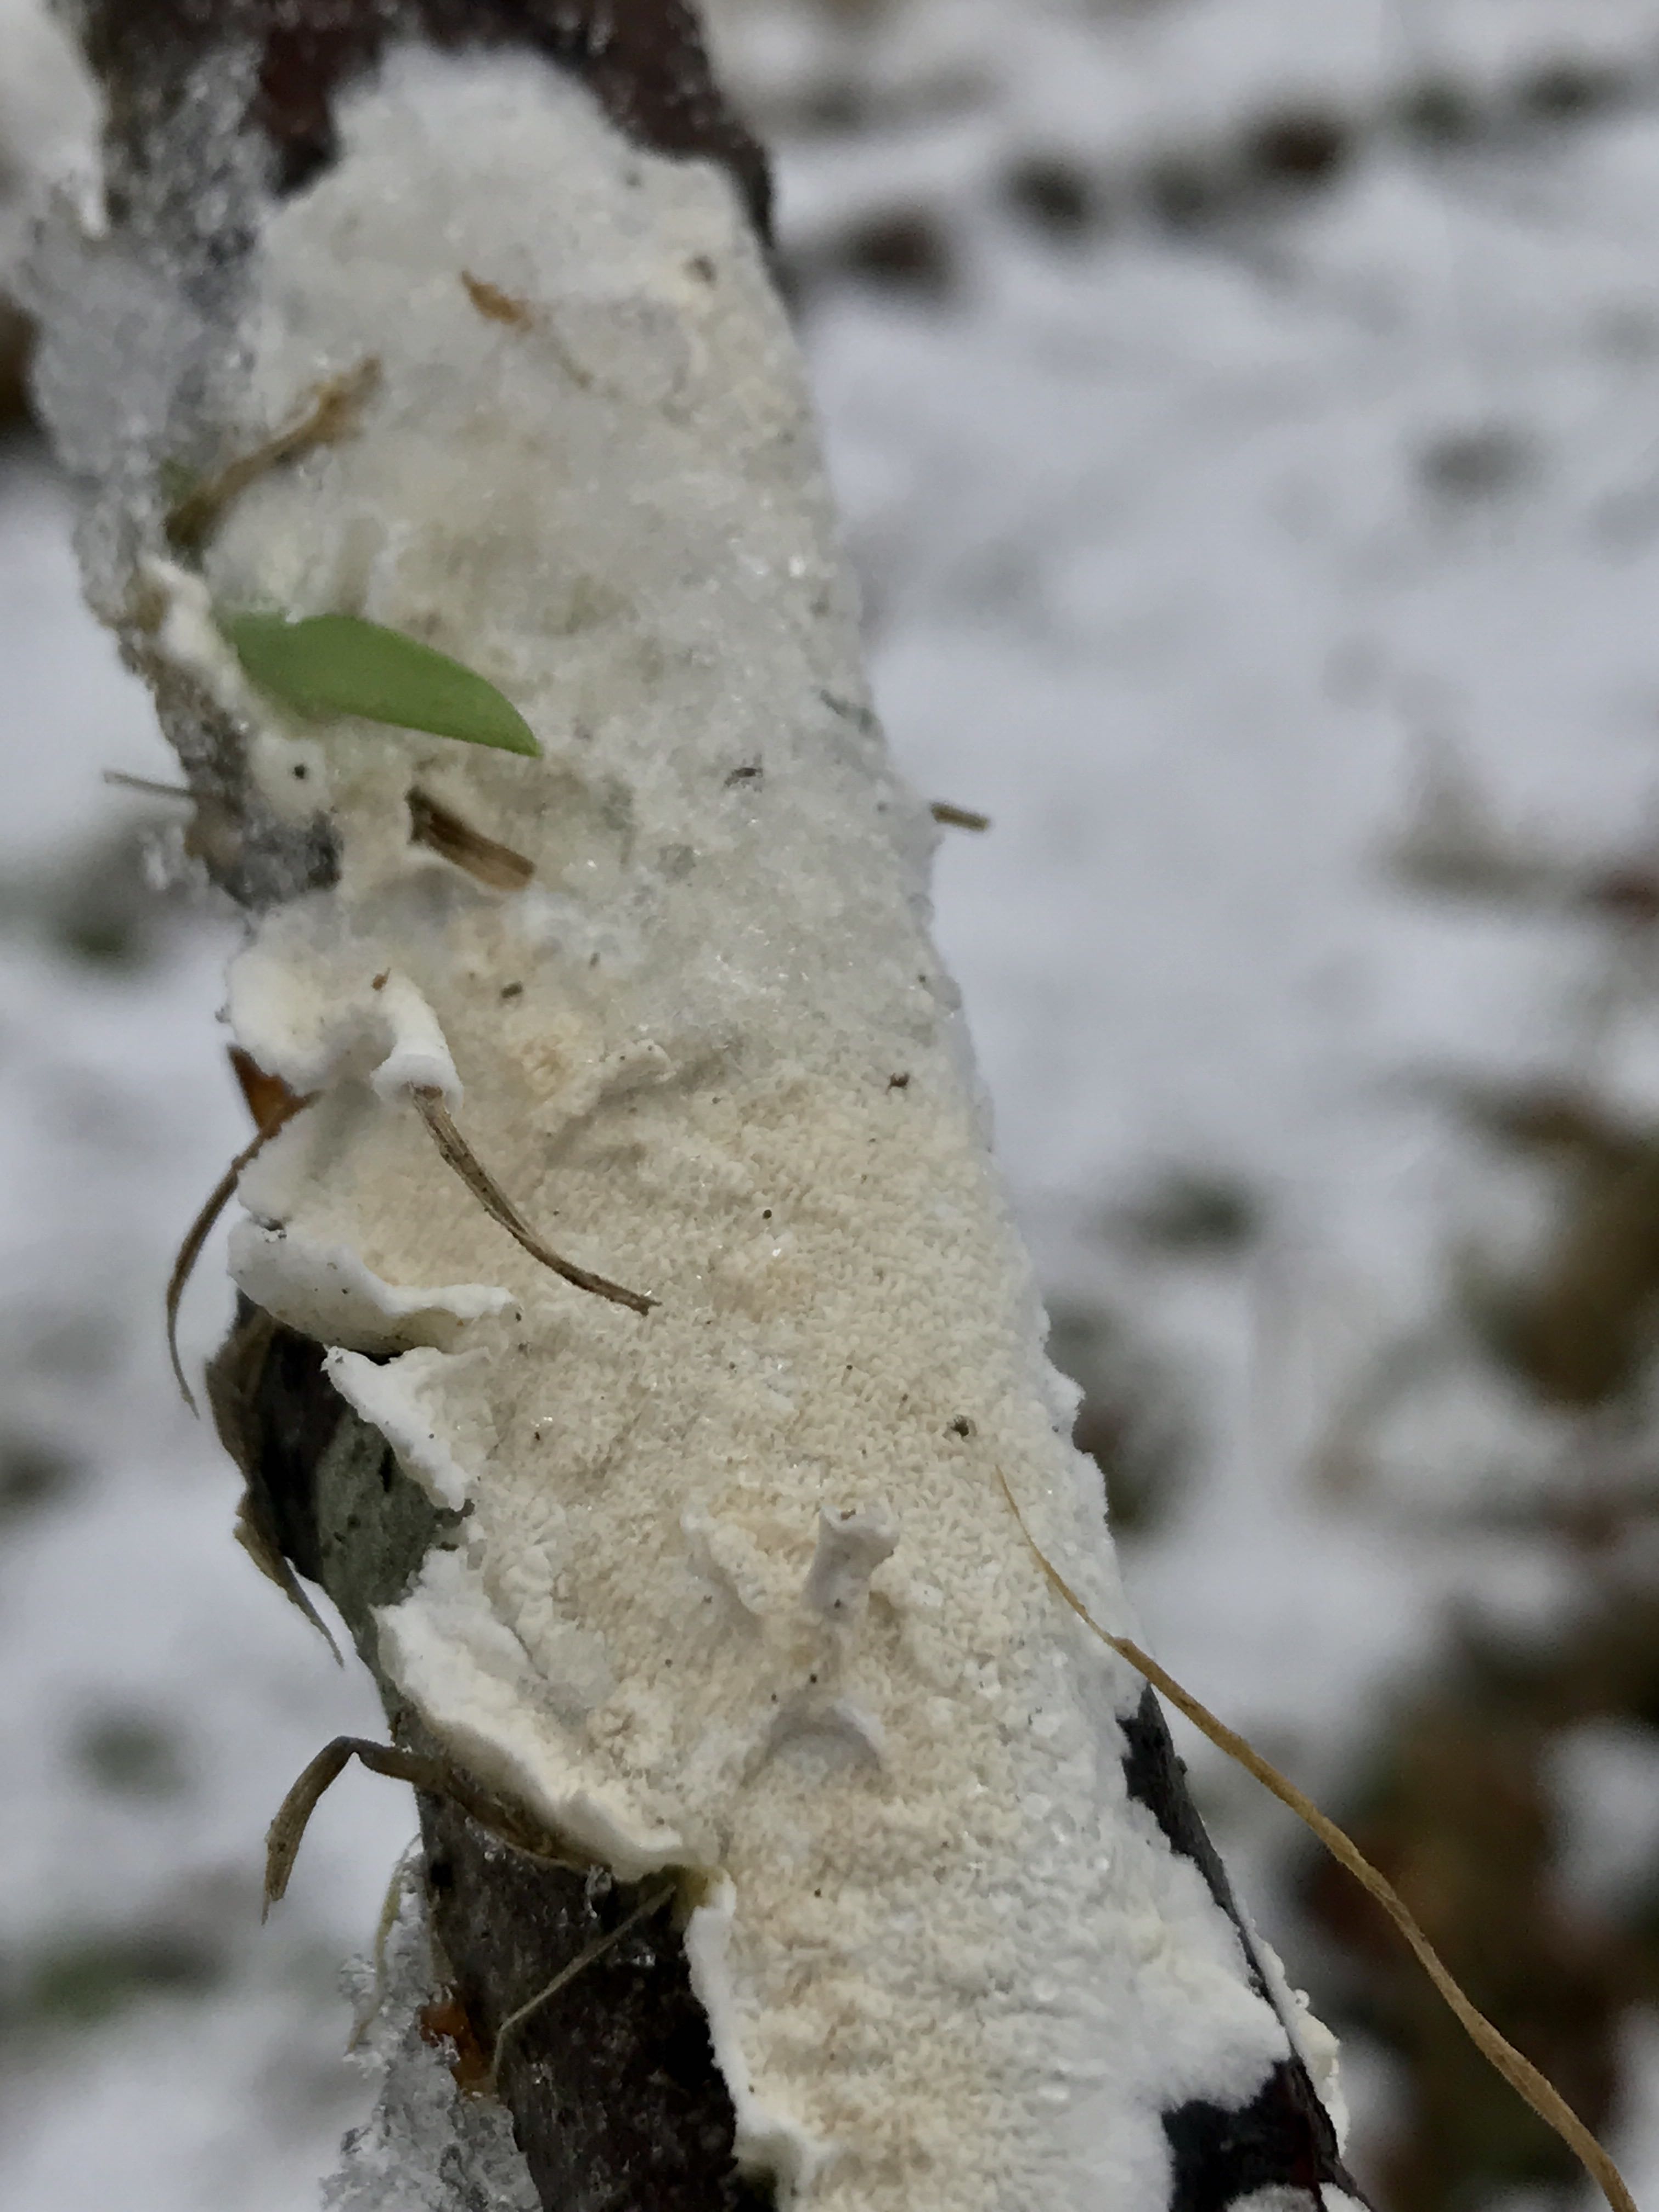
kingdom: Fungi
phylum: Basidiomycota
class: Agaricomycetes
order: Polyporales
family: Irpicaceae
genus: Byssomerulius
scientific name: Byssomerulius corium
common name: læder-åresvamp
